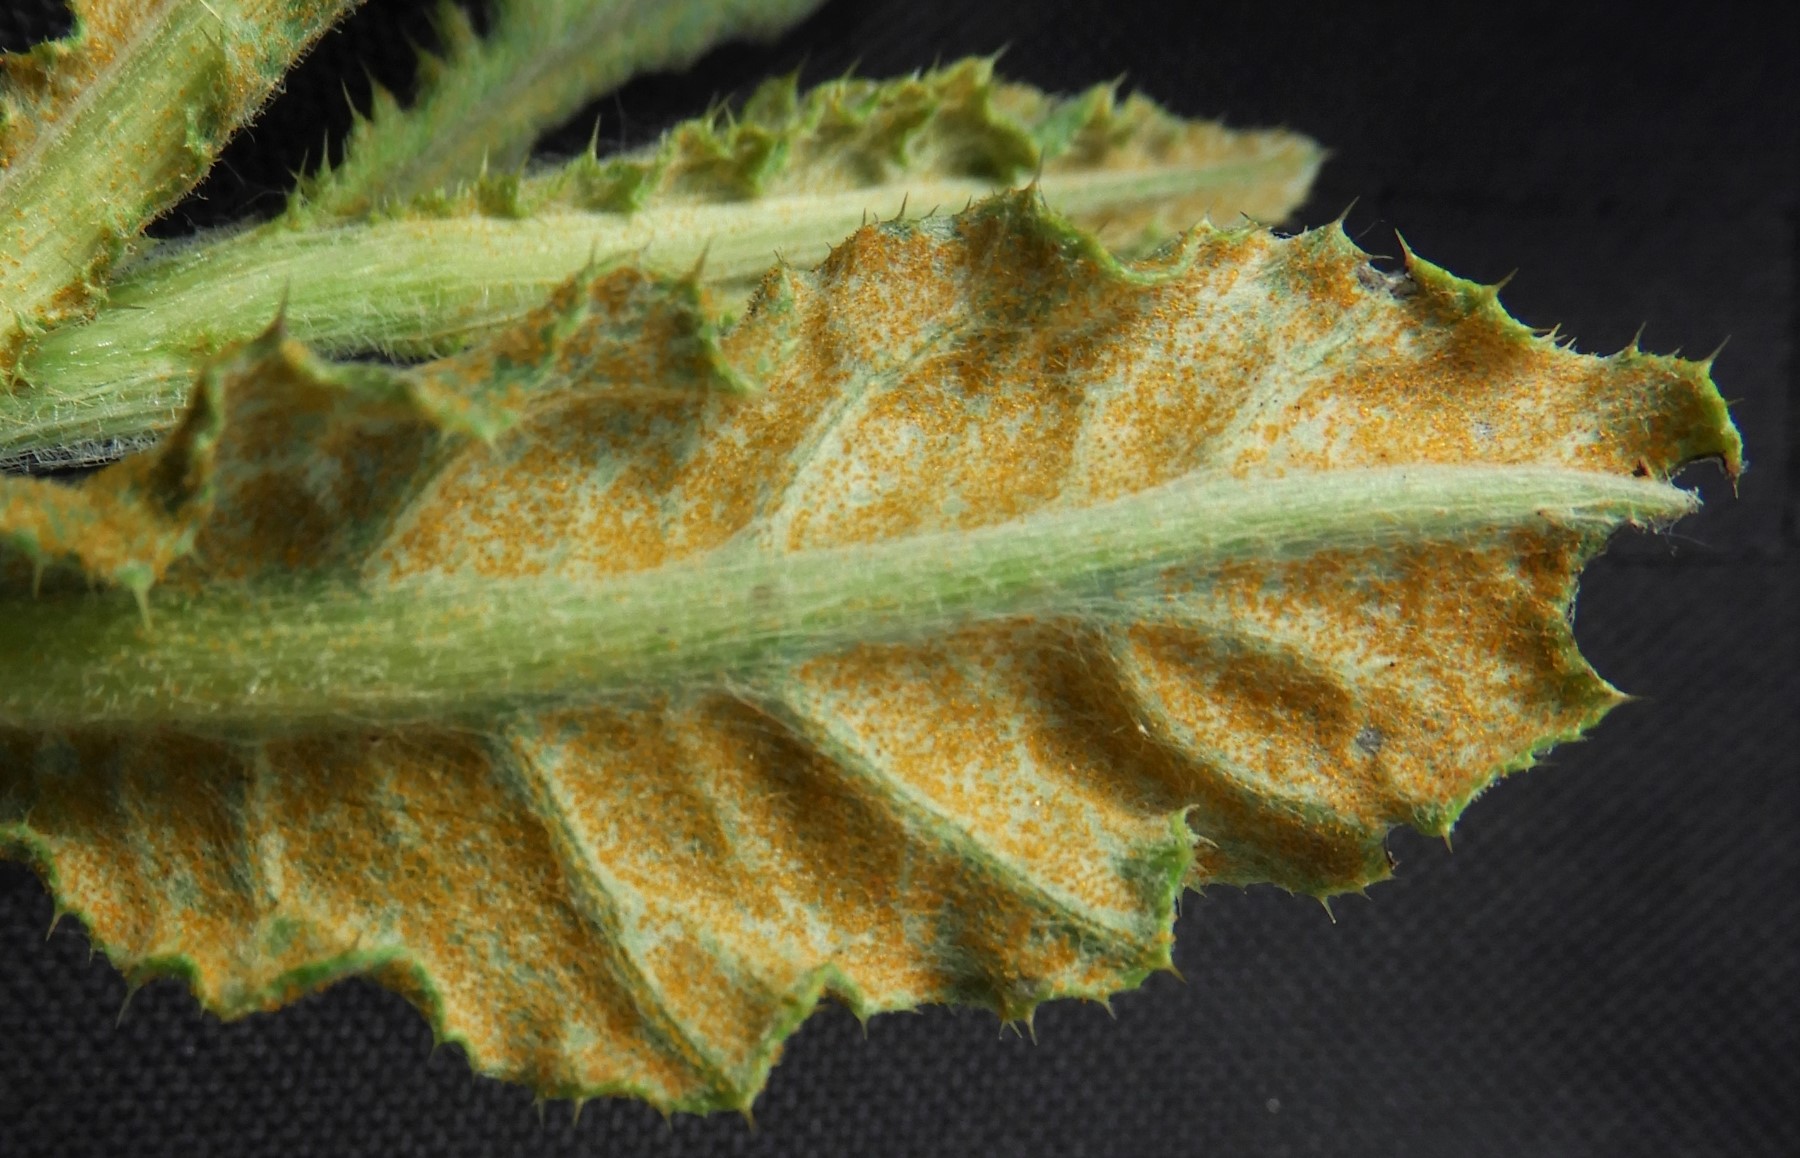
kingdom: Fungi
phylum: Basidiomycota
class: Pucciniomycetes
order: Pucciniales
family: Pucciniaceae
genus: Puccinia
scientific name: Puccinia suaveolens
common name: tidsel-tvecellerust
